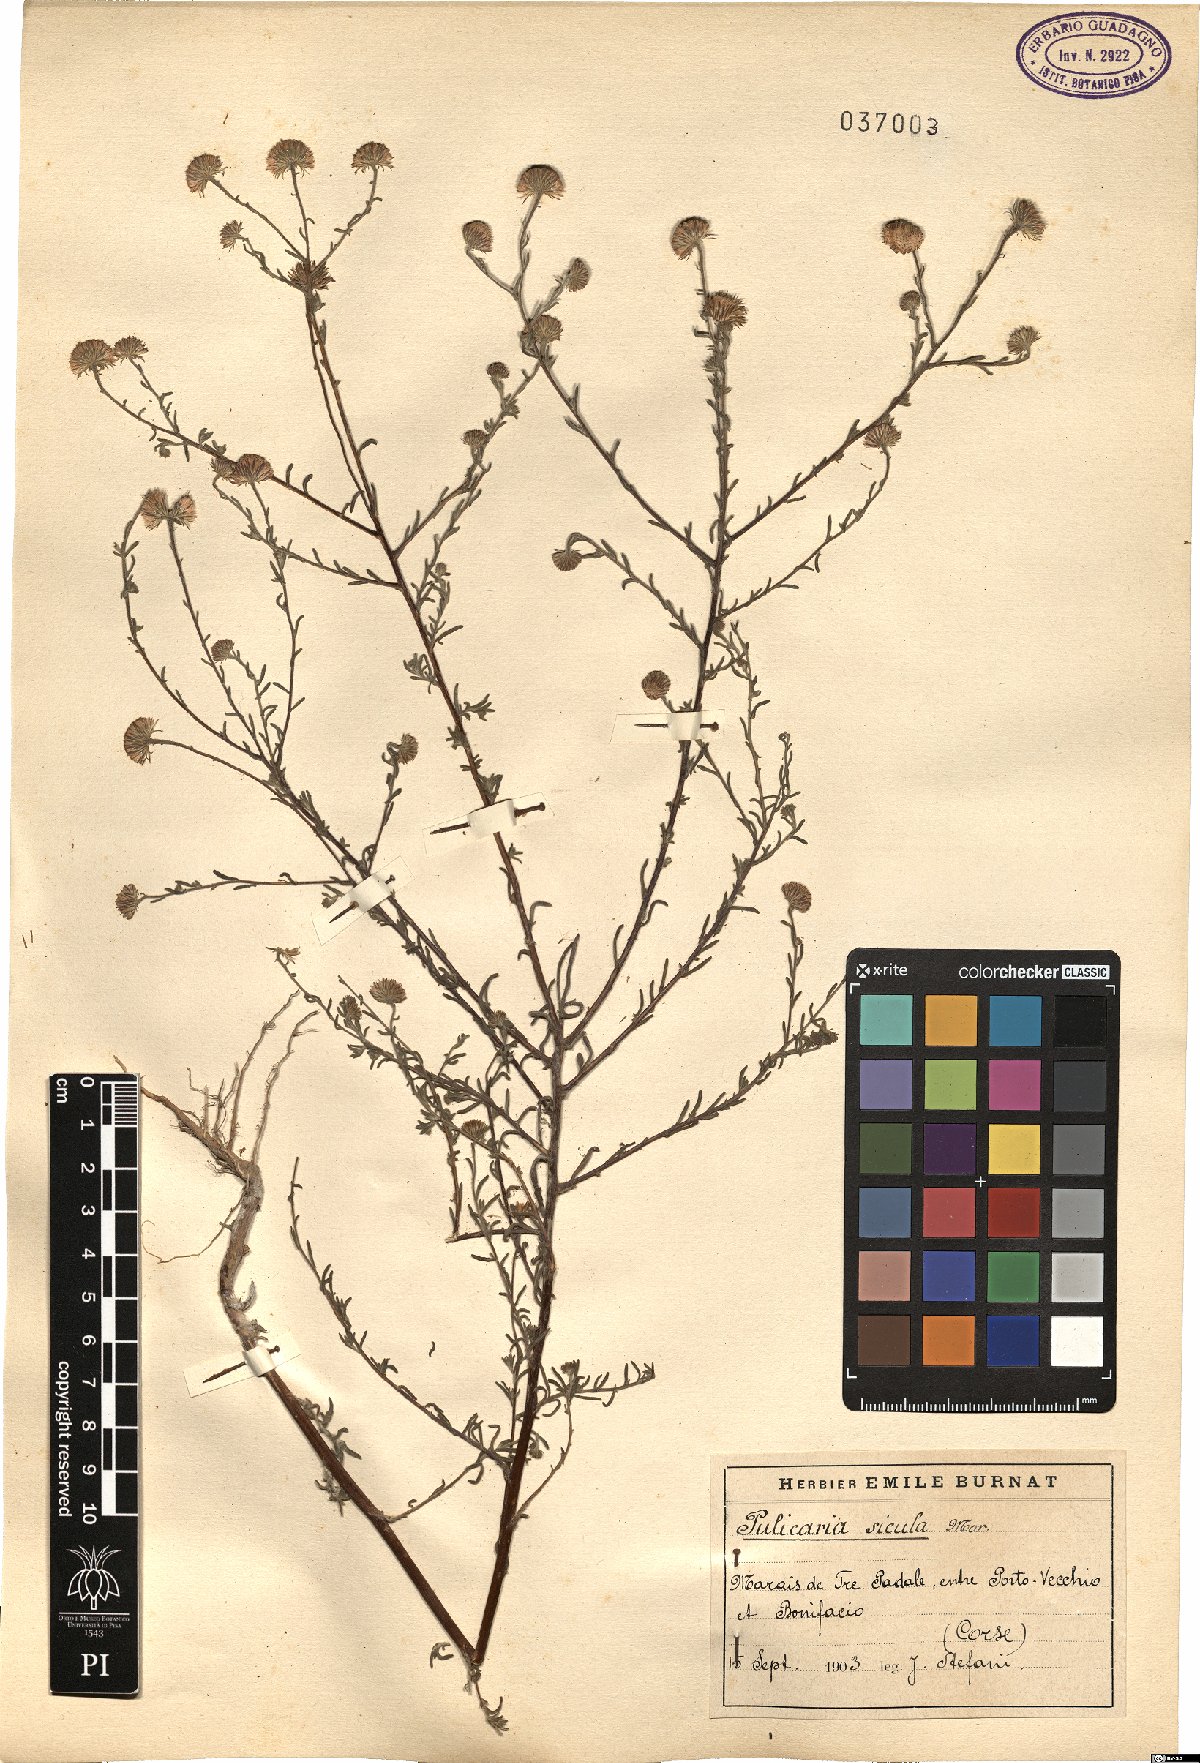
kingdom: Plantae
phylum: Tracheophyta
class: Magnoliopsida
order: Asterales
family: Asteraceae
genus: Pulicaria
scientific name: Pulicaria sicula
